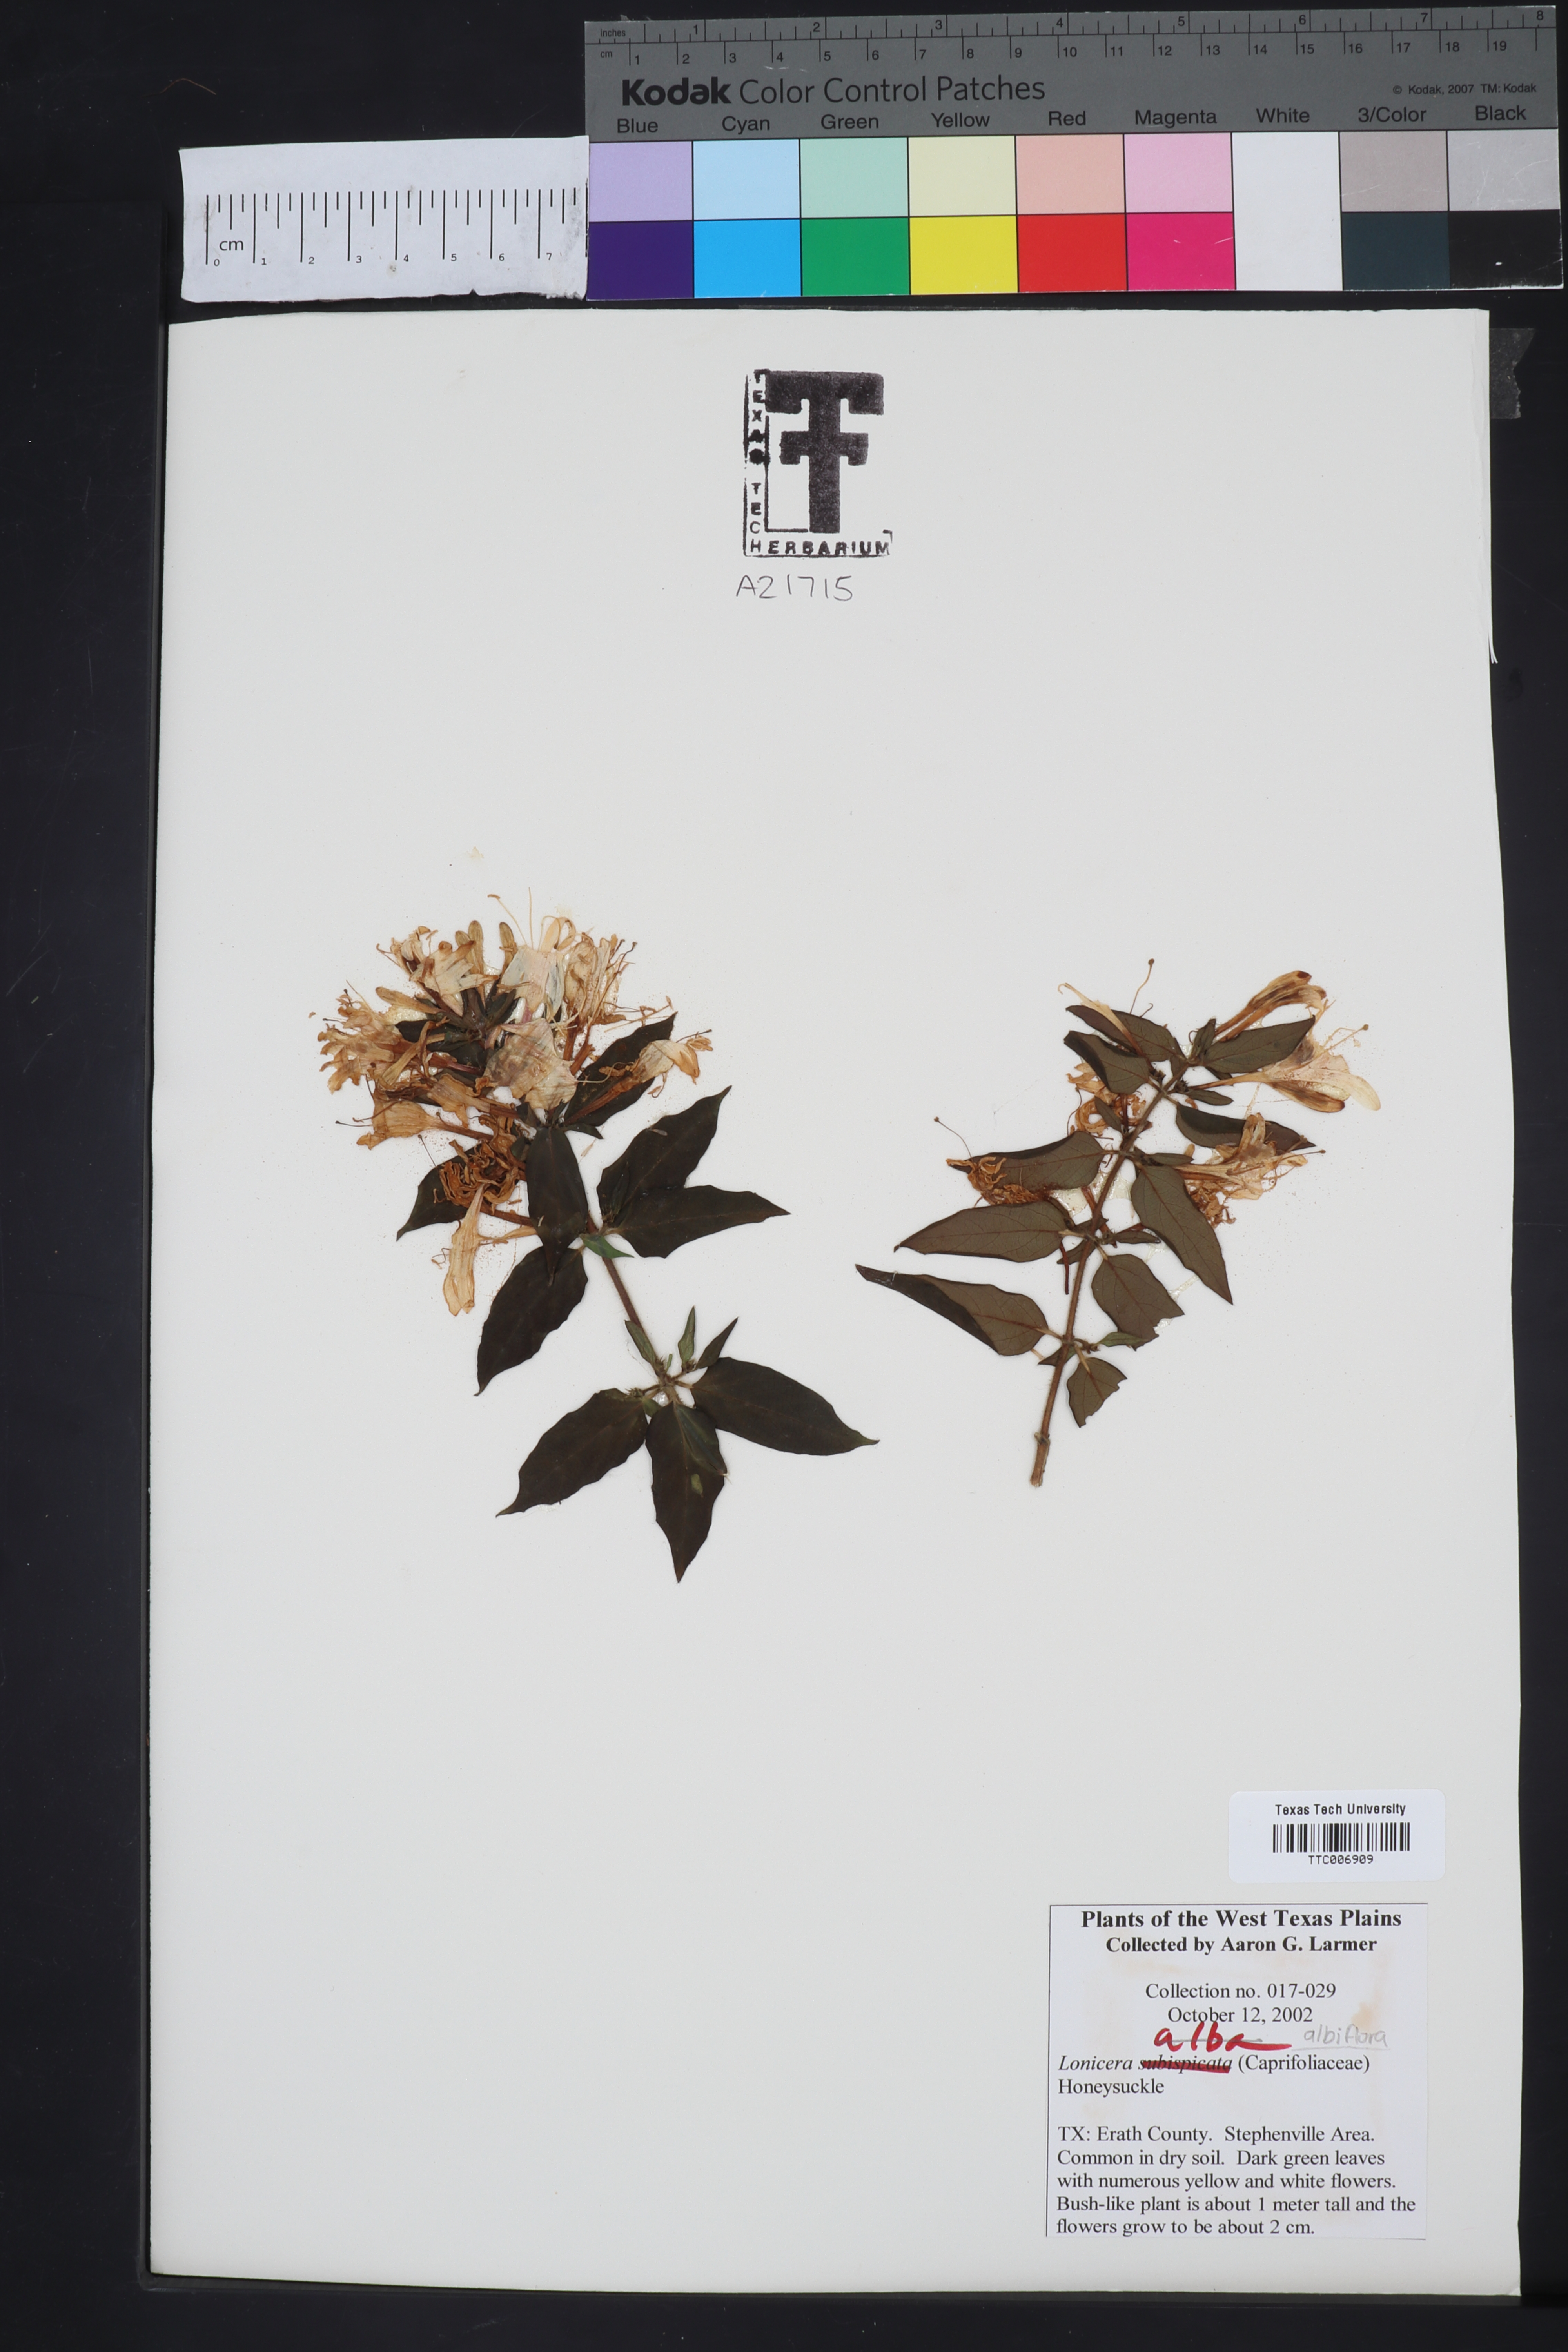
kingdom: Plantae
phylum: Tracheophyta
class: Magnoliopsida
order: Dipsacales
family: Caprifoliaceae
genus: Symphoricarpos
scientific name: Symphoricarpos albus
